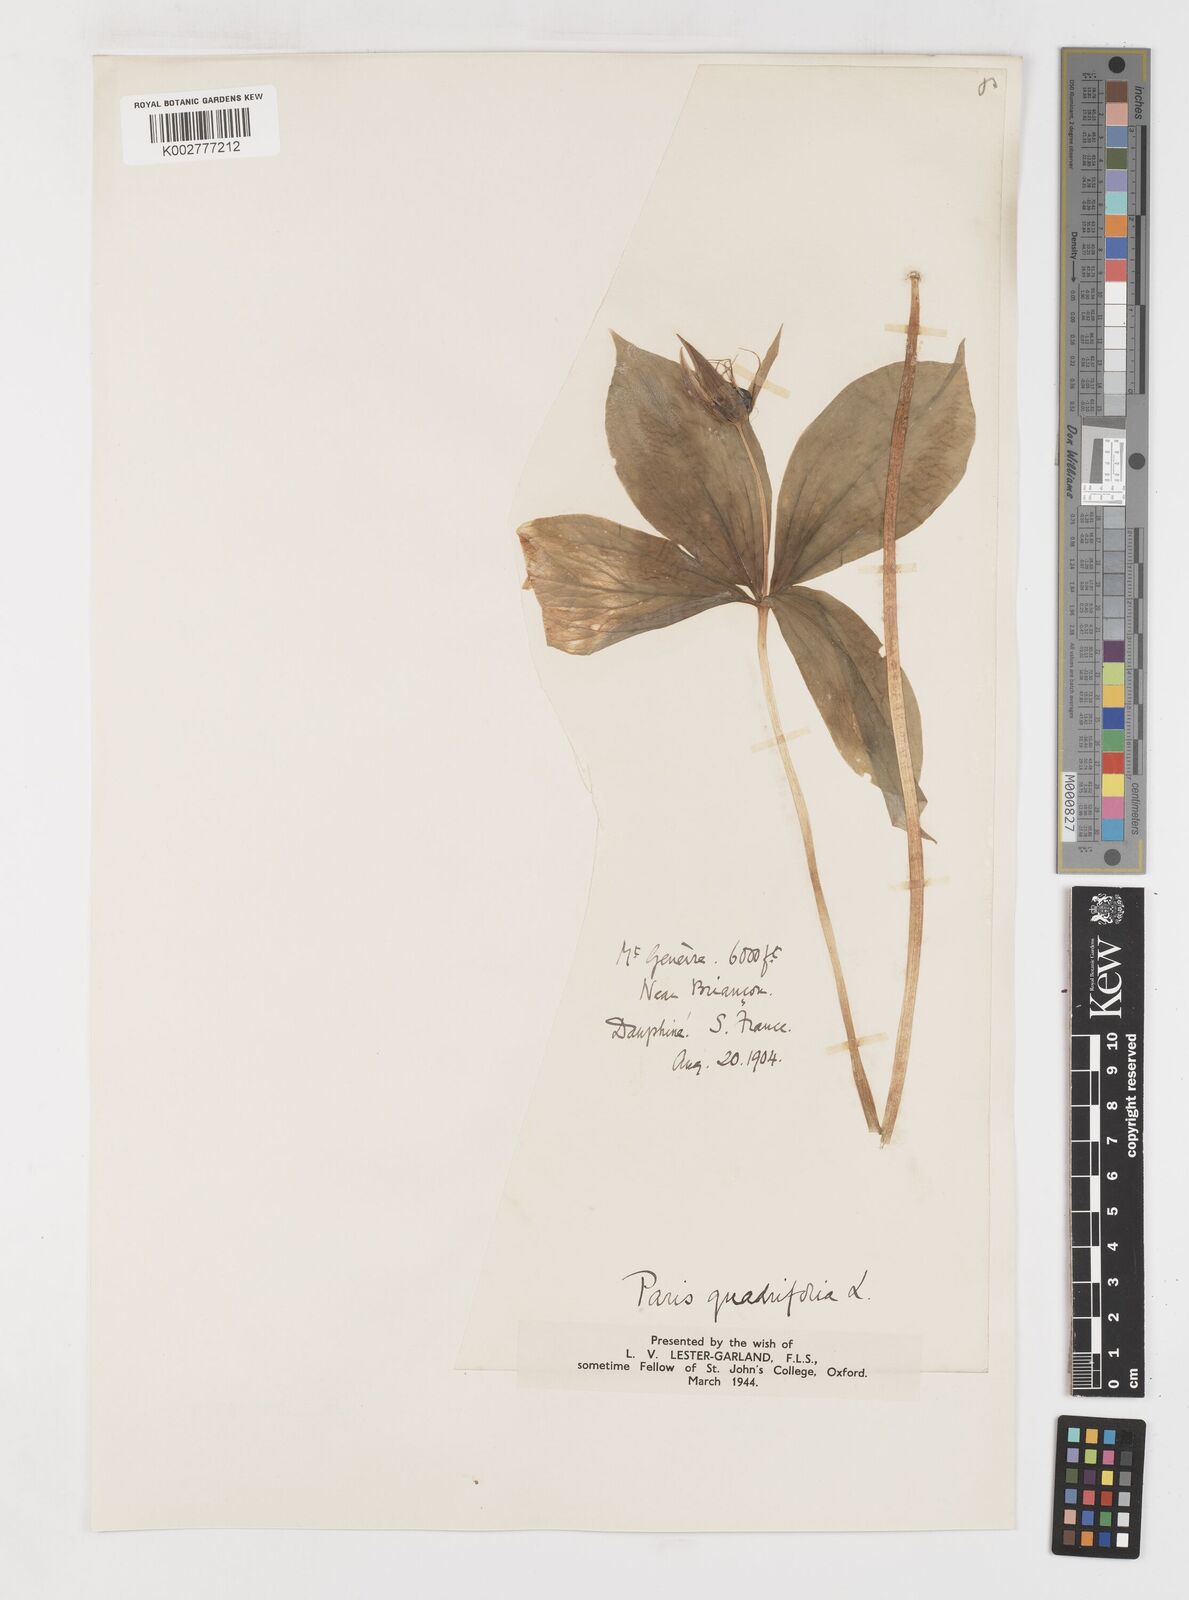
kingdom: Plantae
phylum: Tracheophyta
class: Liliopsida
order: Liliales
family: Melanthiaceae
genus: Paris
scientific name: Paris quadrifolia
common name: Herb-paris
